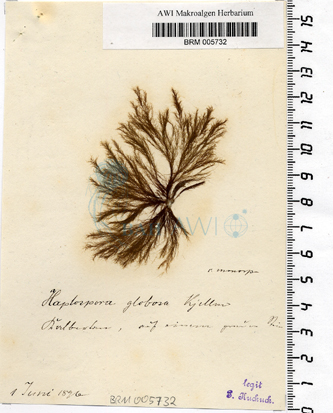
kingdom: Chromista
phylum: Ochrophyta
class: Phaeophyceae
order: Tilopteridales
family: Tilopteridaceae
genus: Haplospora
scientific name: Haplospora globosa
